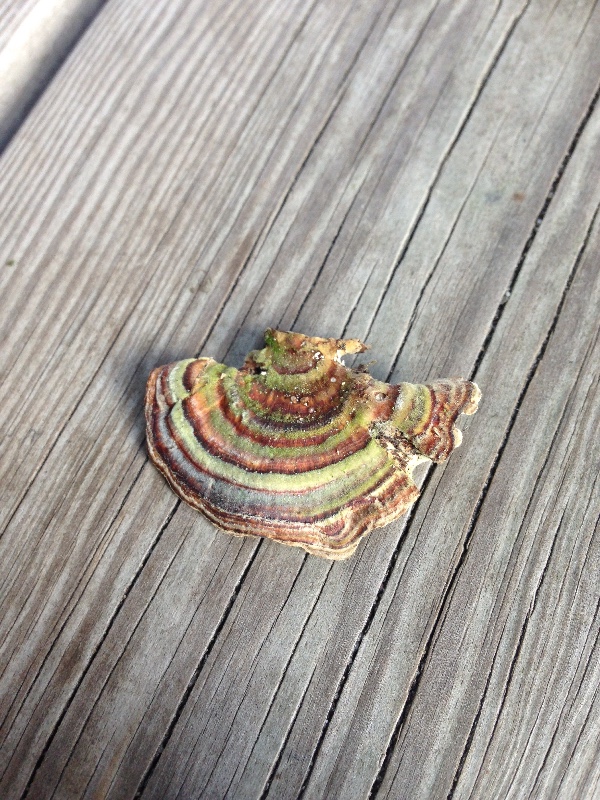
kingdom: Fungi
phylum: Basidiomycota
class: Agaricomycetes
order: Polyporales
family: Polyporaceae
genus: Trametes
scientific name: Trametes versicolor
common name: broget læderporesvamp
